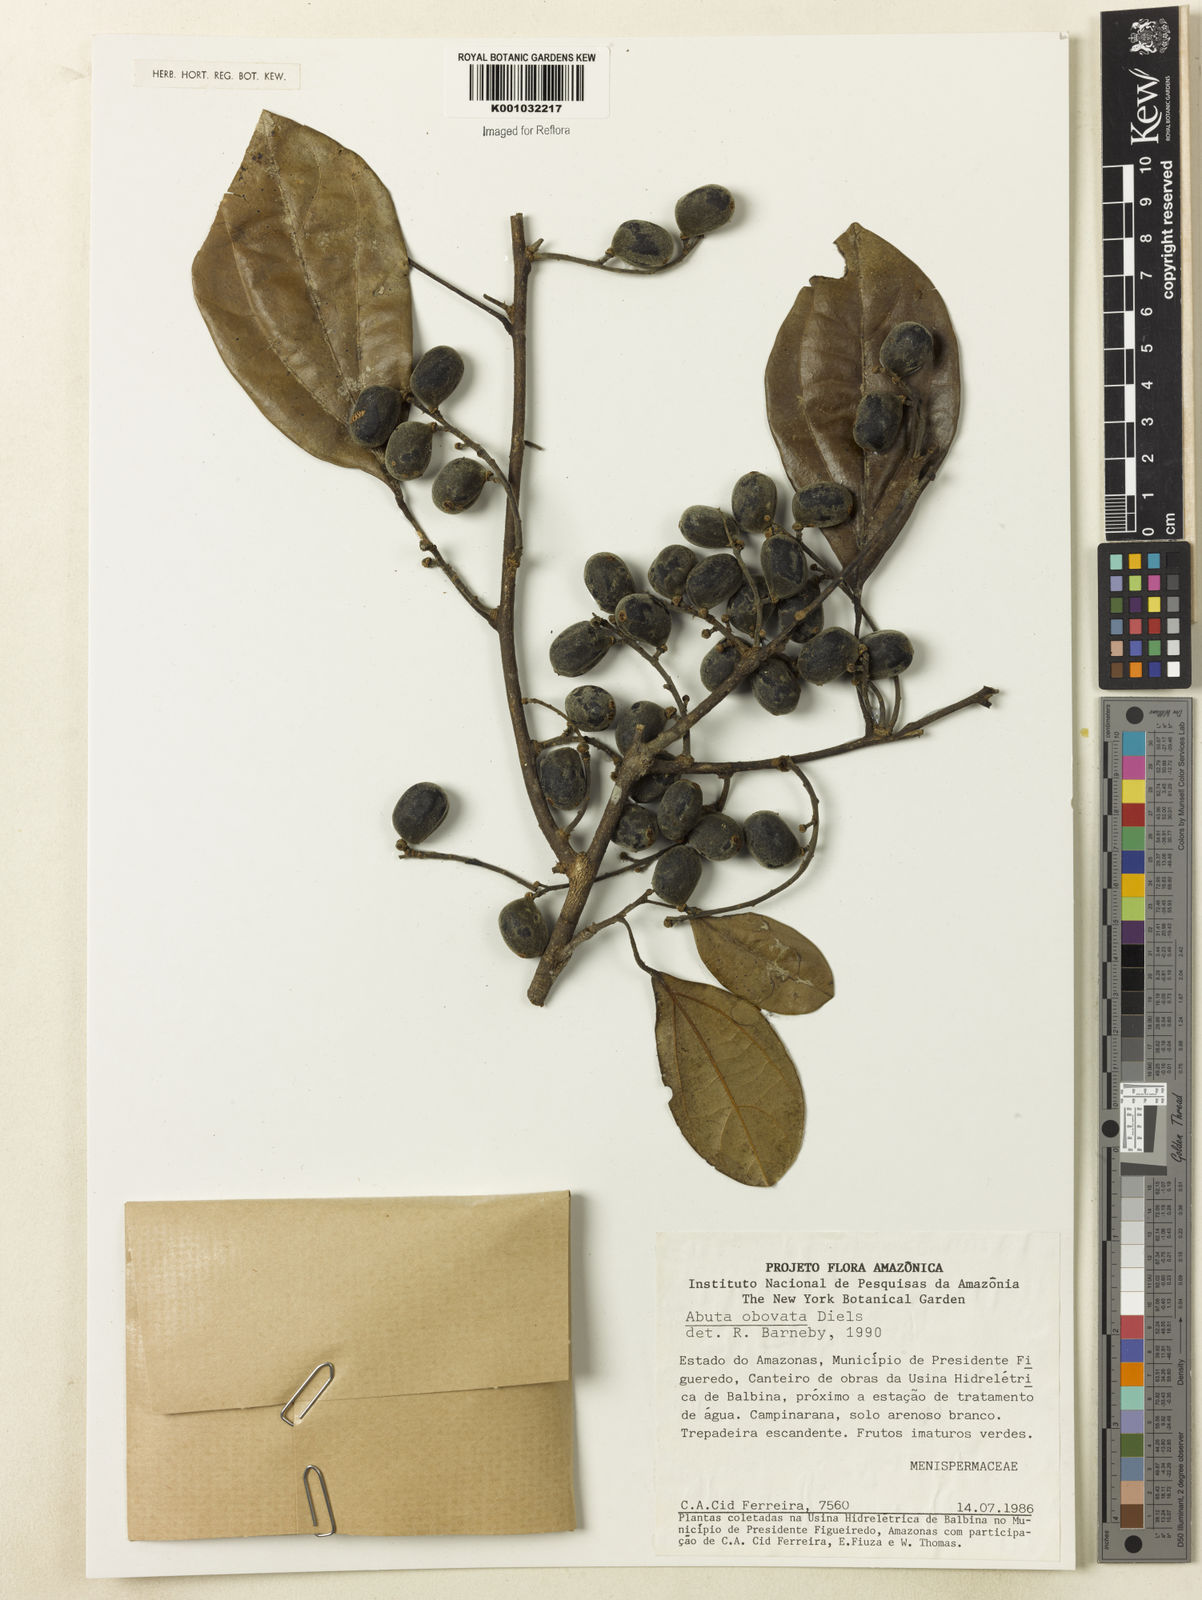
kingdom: Plantae
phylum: Tracheophyta
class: Magnoliopsida
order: Ranunculales
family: Menispermaceae
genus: Abuta
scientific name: Abuta obovata
